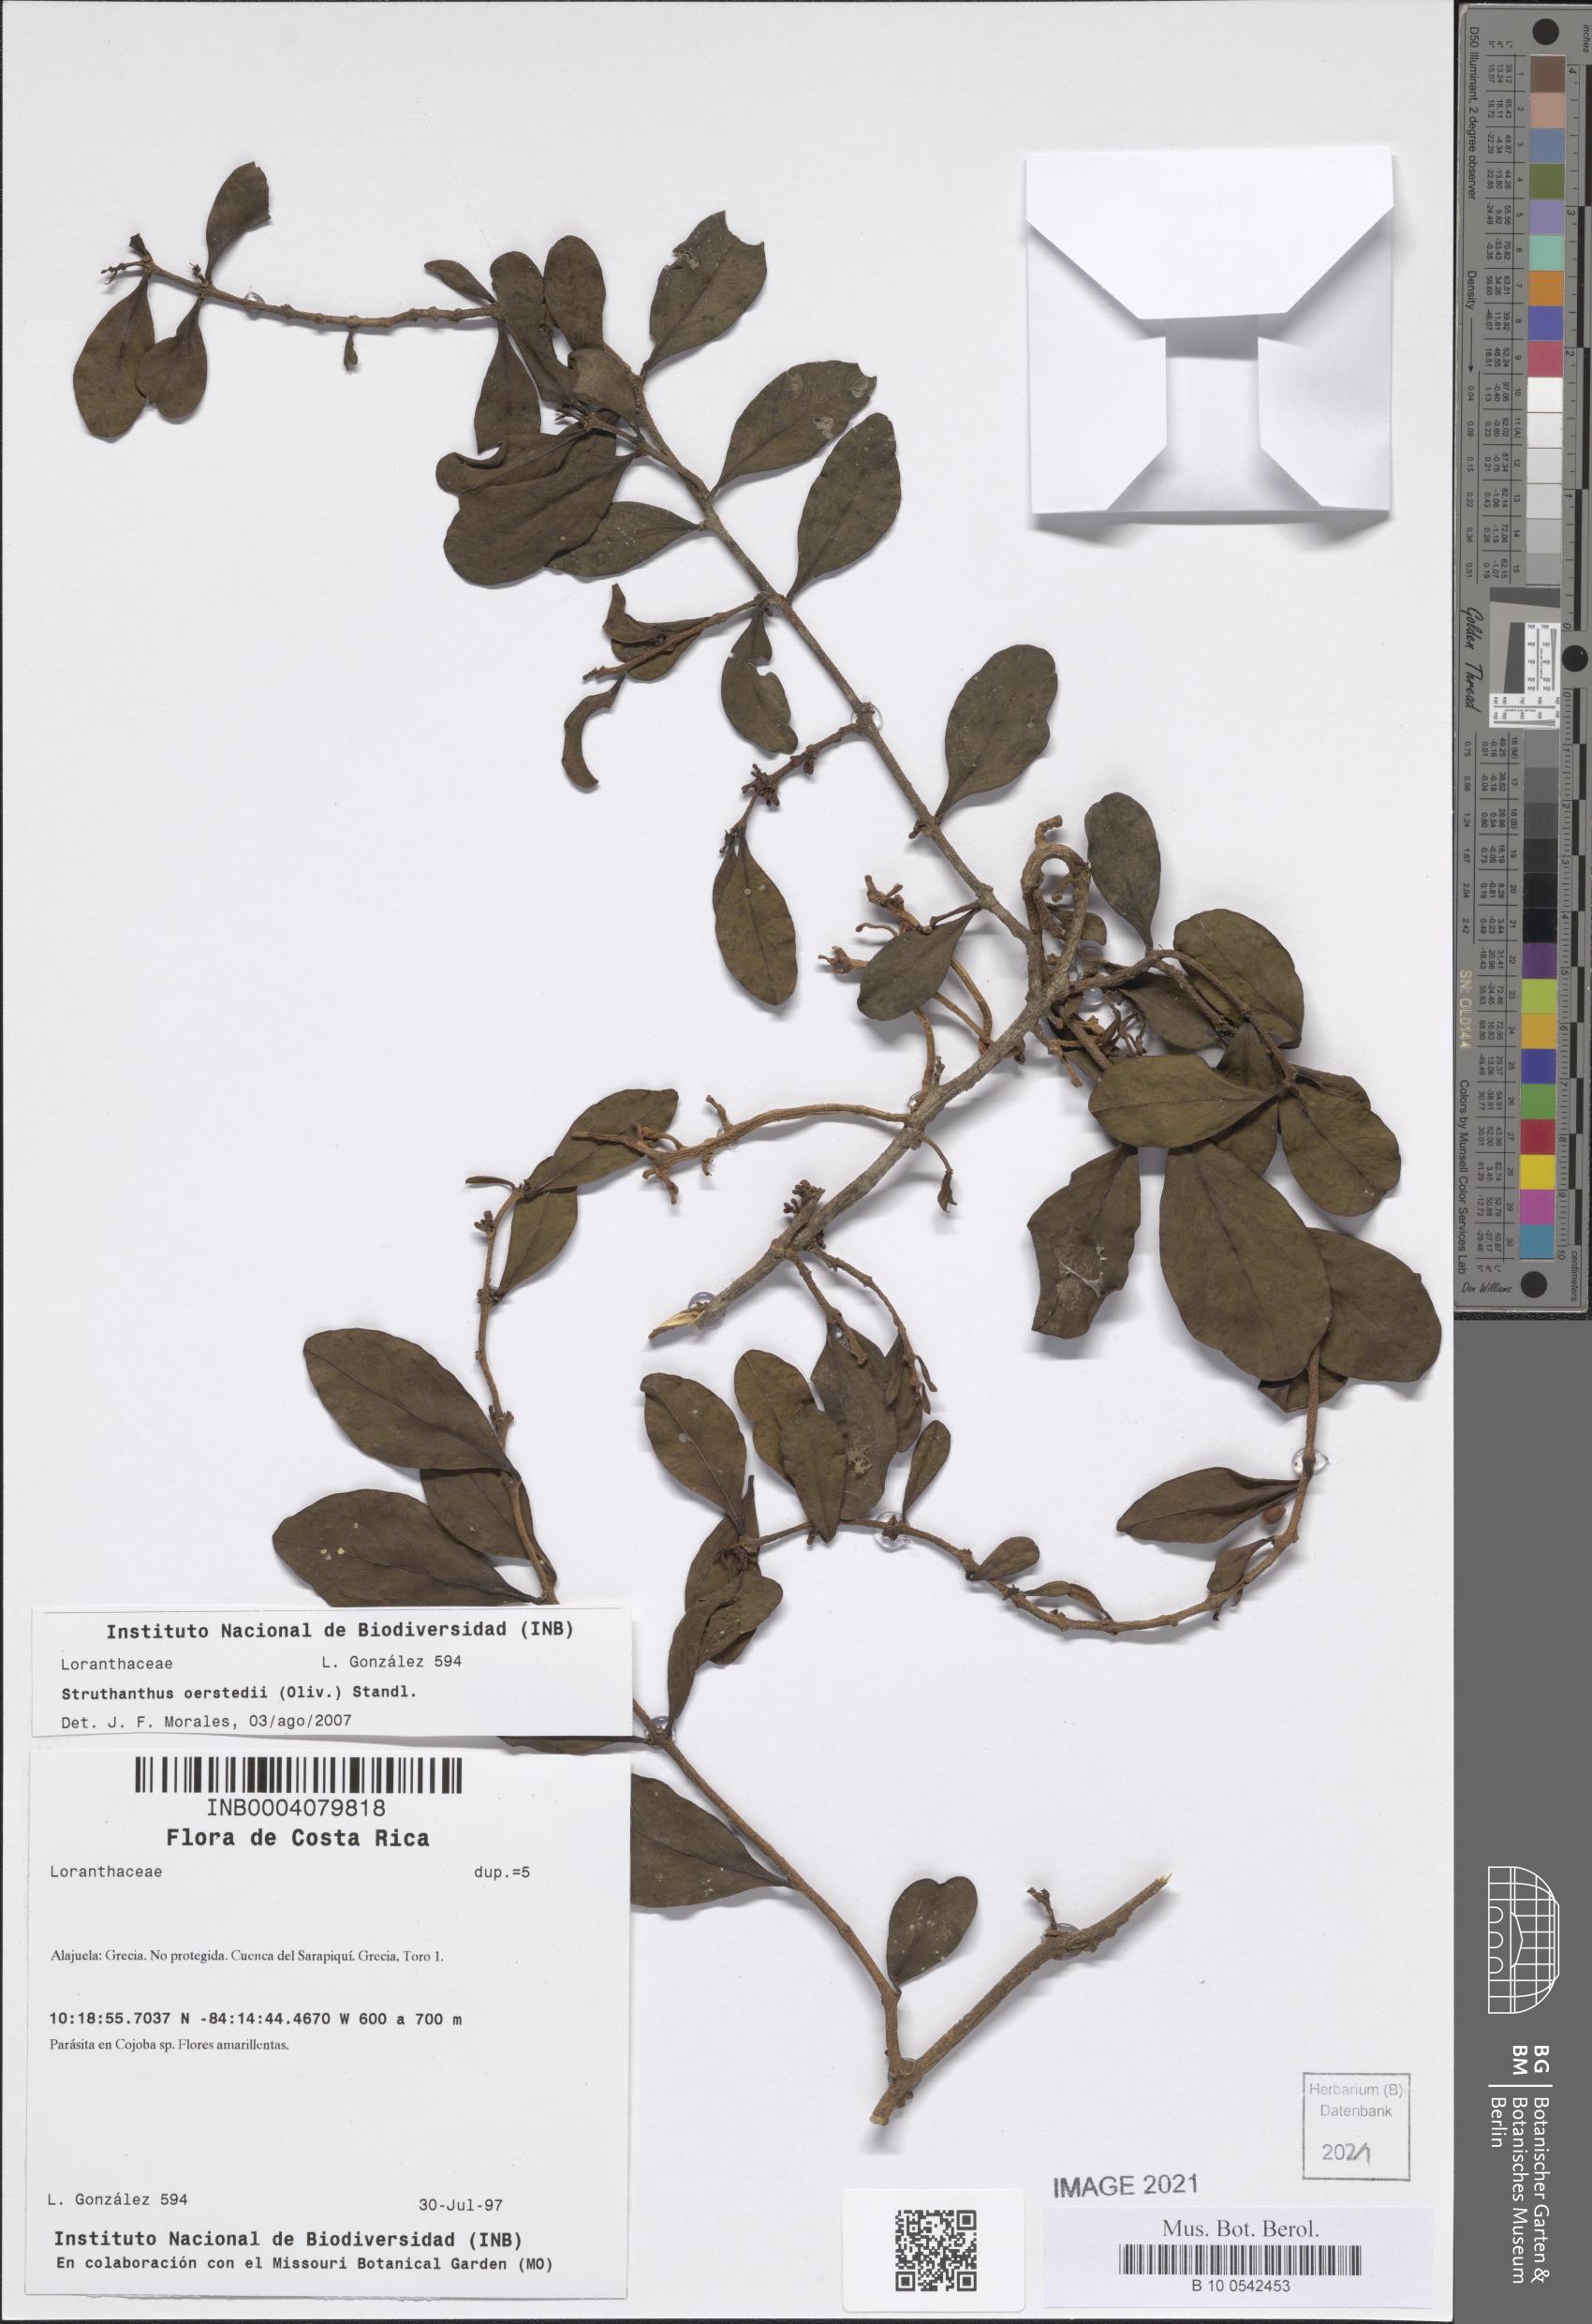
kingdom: Plantae
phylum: Tracheophyta
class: Magnoliopsida
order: Santalales
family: Loranthaceae
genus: Struthanthus
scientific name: Struthanthus oerstedii
